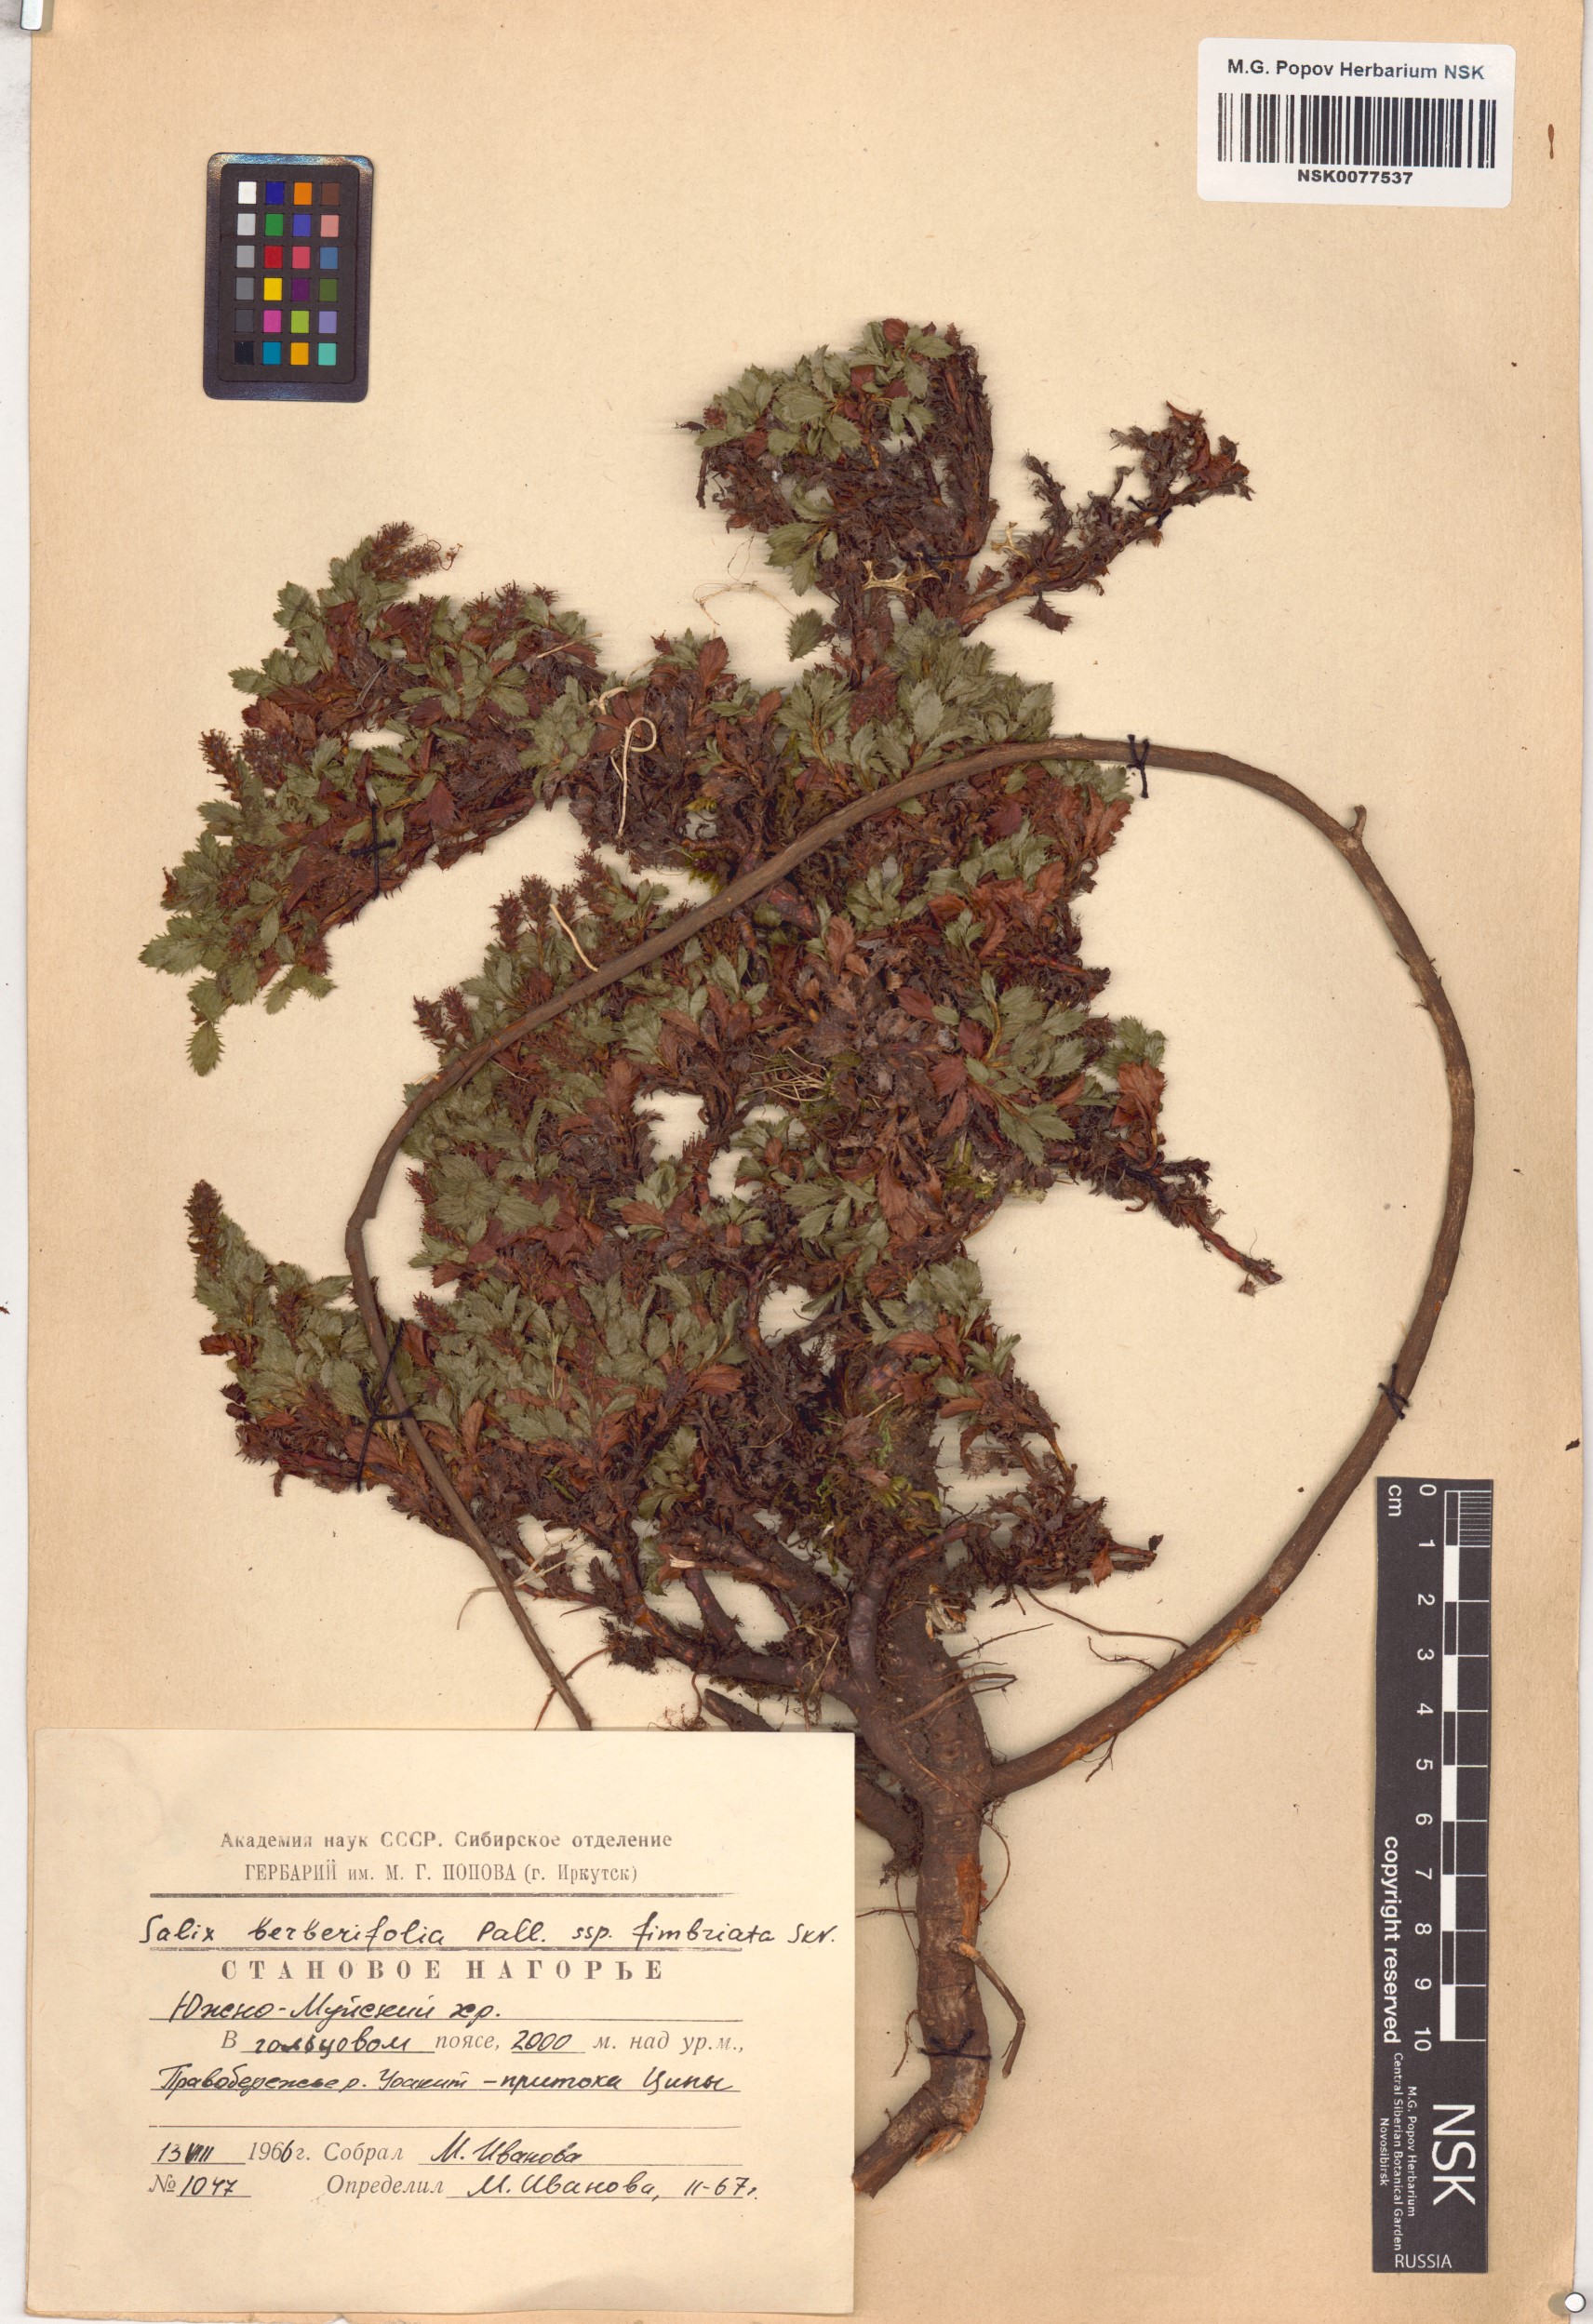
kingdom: Plantae
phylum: Tracheophyta
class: Magnoliopsida
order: Malpighiales
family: Salicaceae
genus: Salix
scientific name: Salix berberifolia
